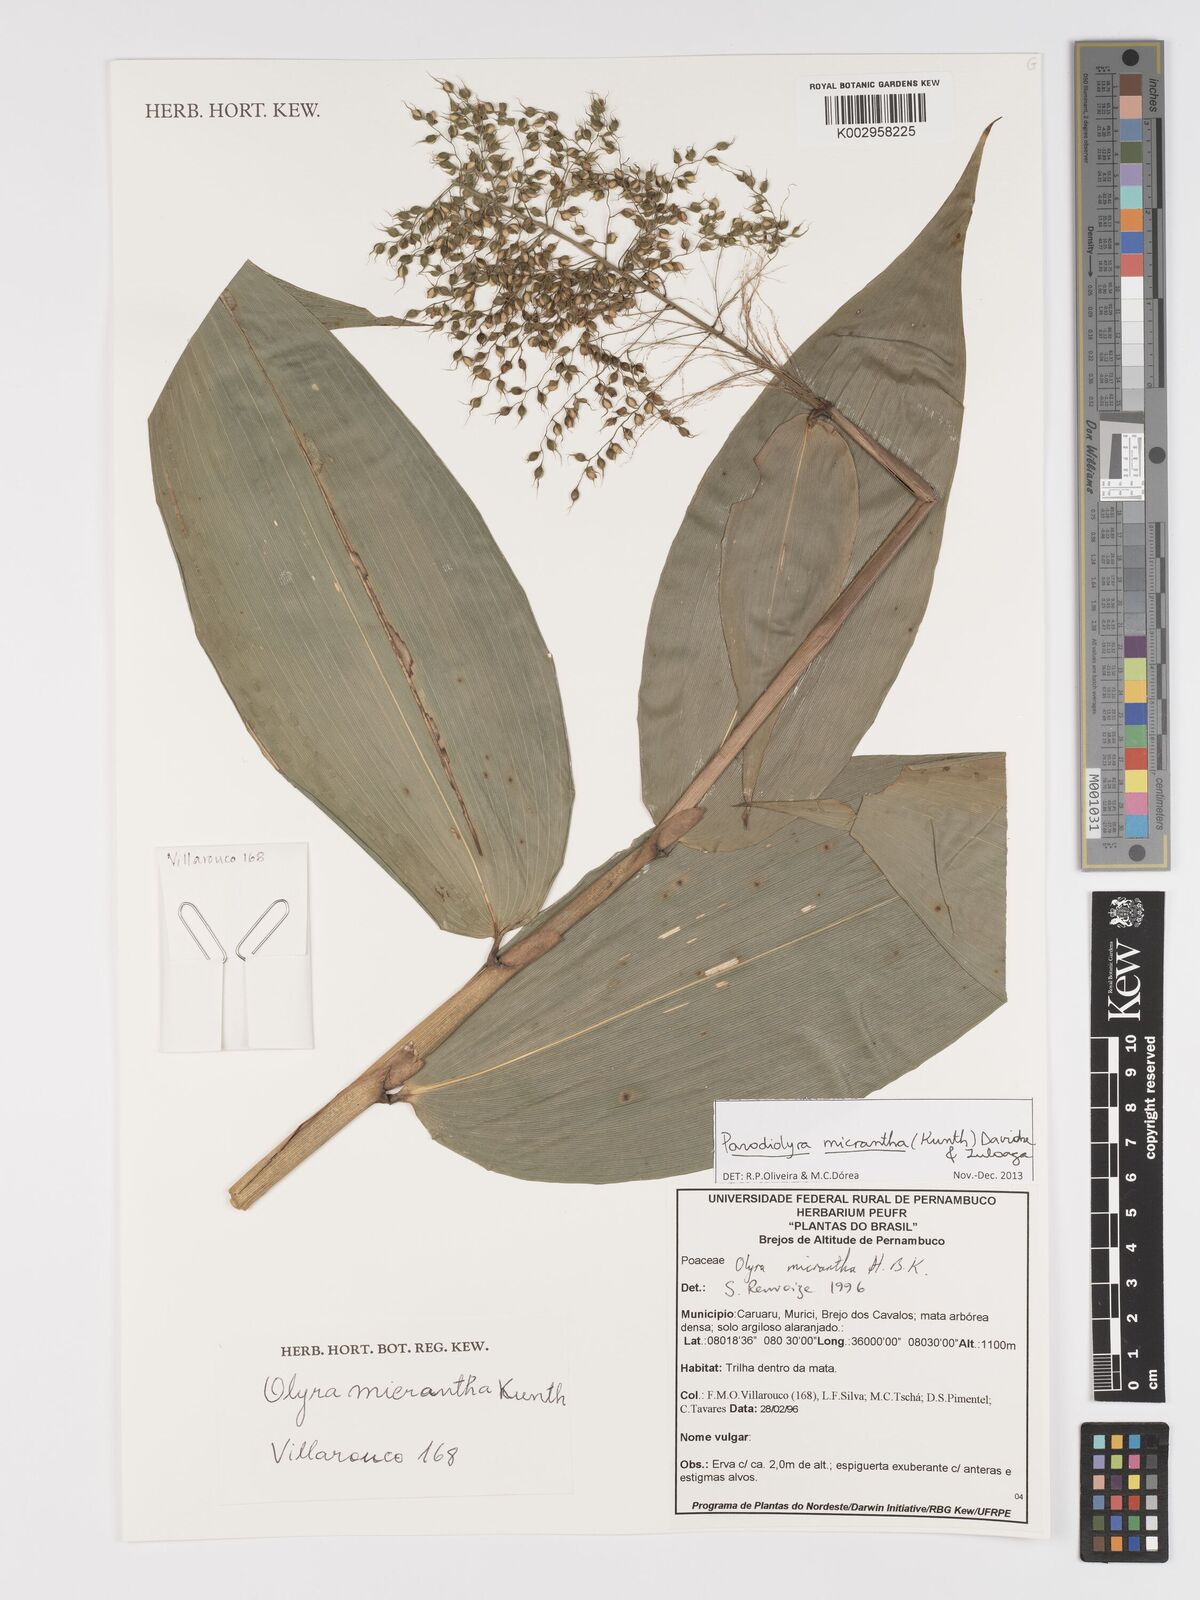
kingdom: Plantae
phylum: Tracheophyta
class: Liliopsida
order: Poales
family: Poaceae
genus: Taquara
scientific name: Taquara micrantha
